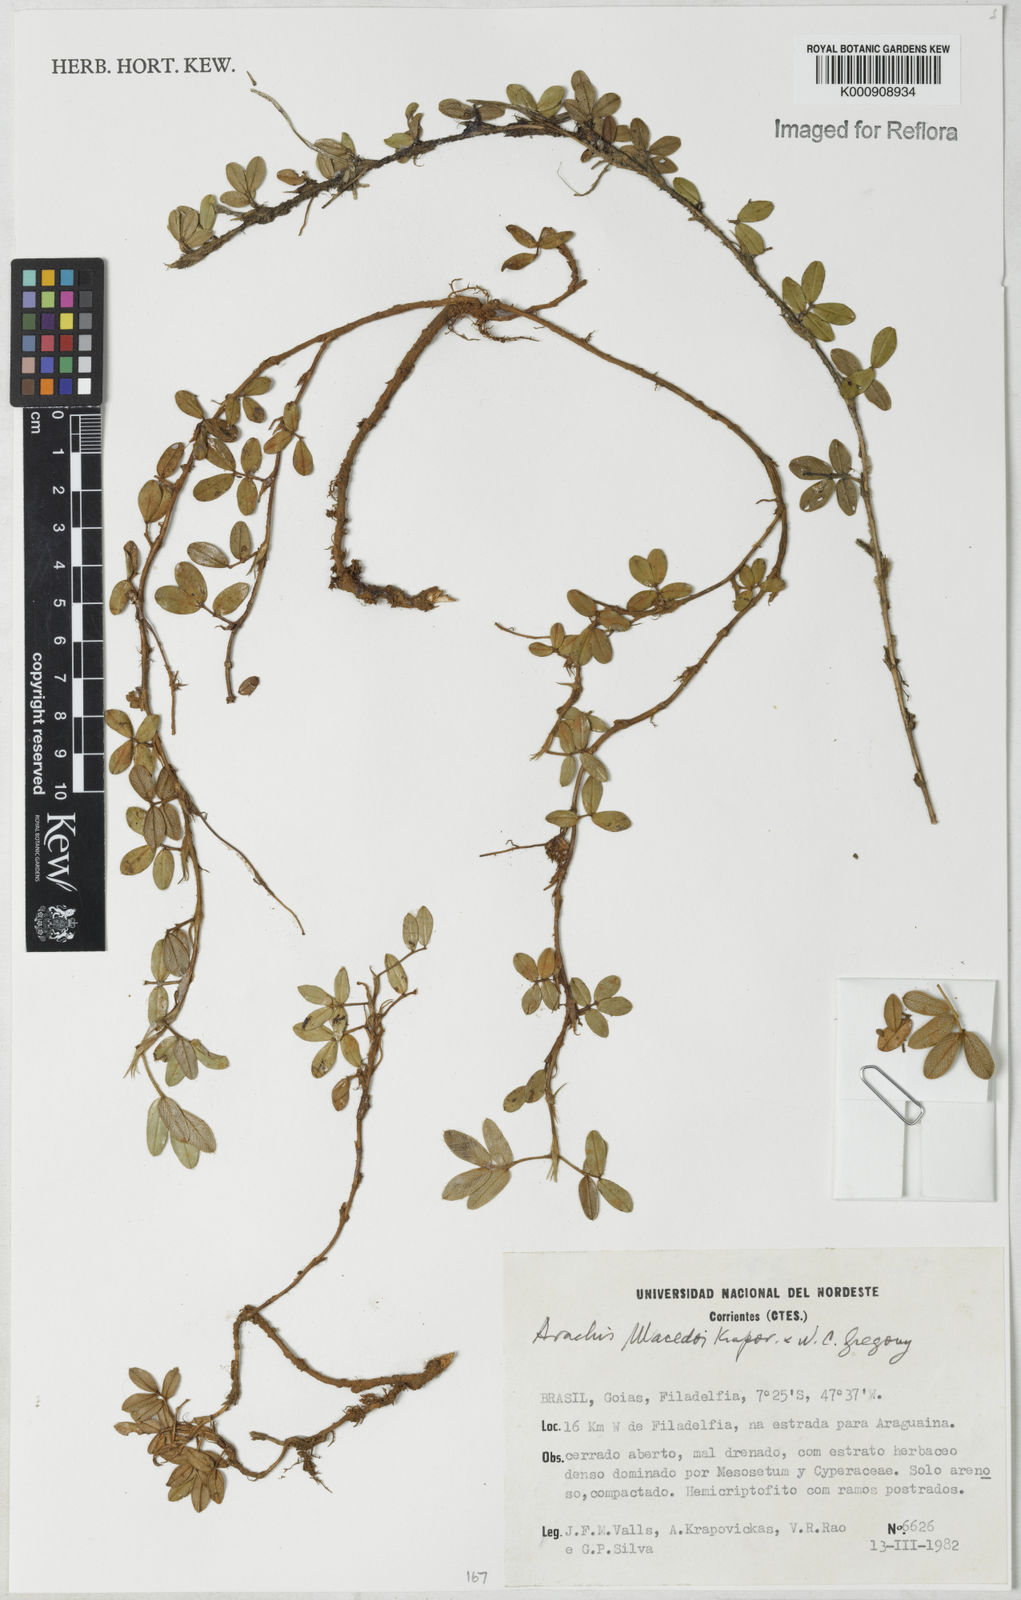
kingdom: Plantae
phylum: Tracheophyta
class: Magnoliopsida
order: Fabales
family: Fabaceae
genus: Arachis
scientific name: Arachis prostrata
